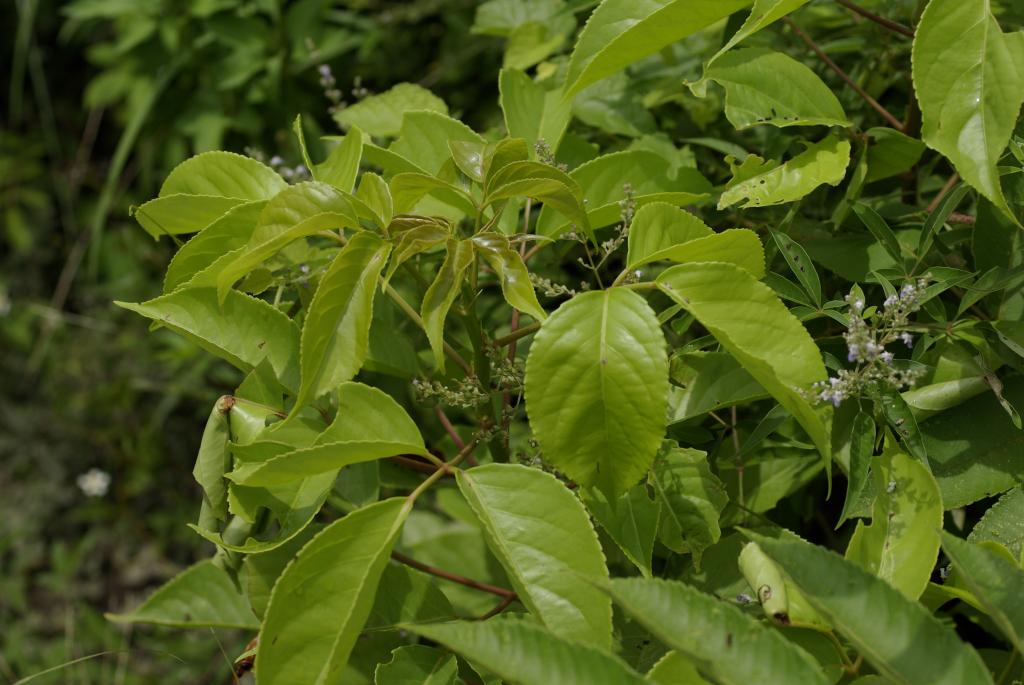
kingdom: Plantae
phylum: Tracheophyta
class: Magnoliopsida
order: Malpighiales
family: Phyllanthaceae
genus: Bischofia
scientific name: Bischofia javanica
